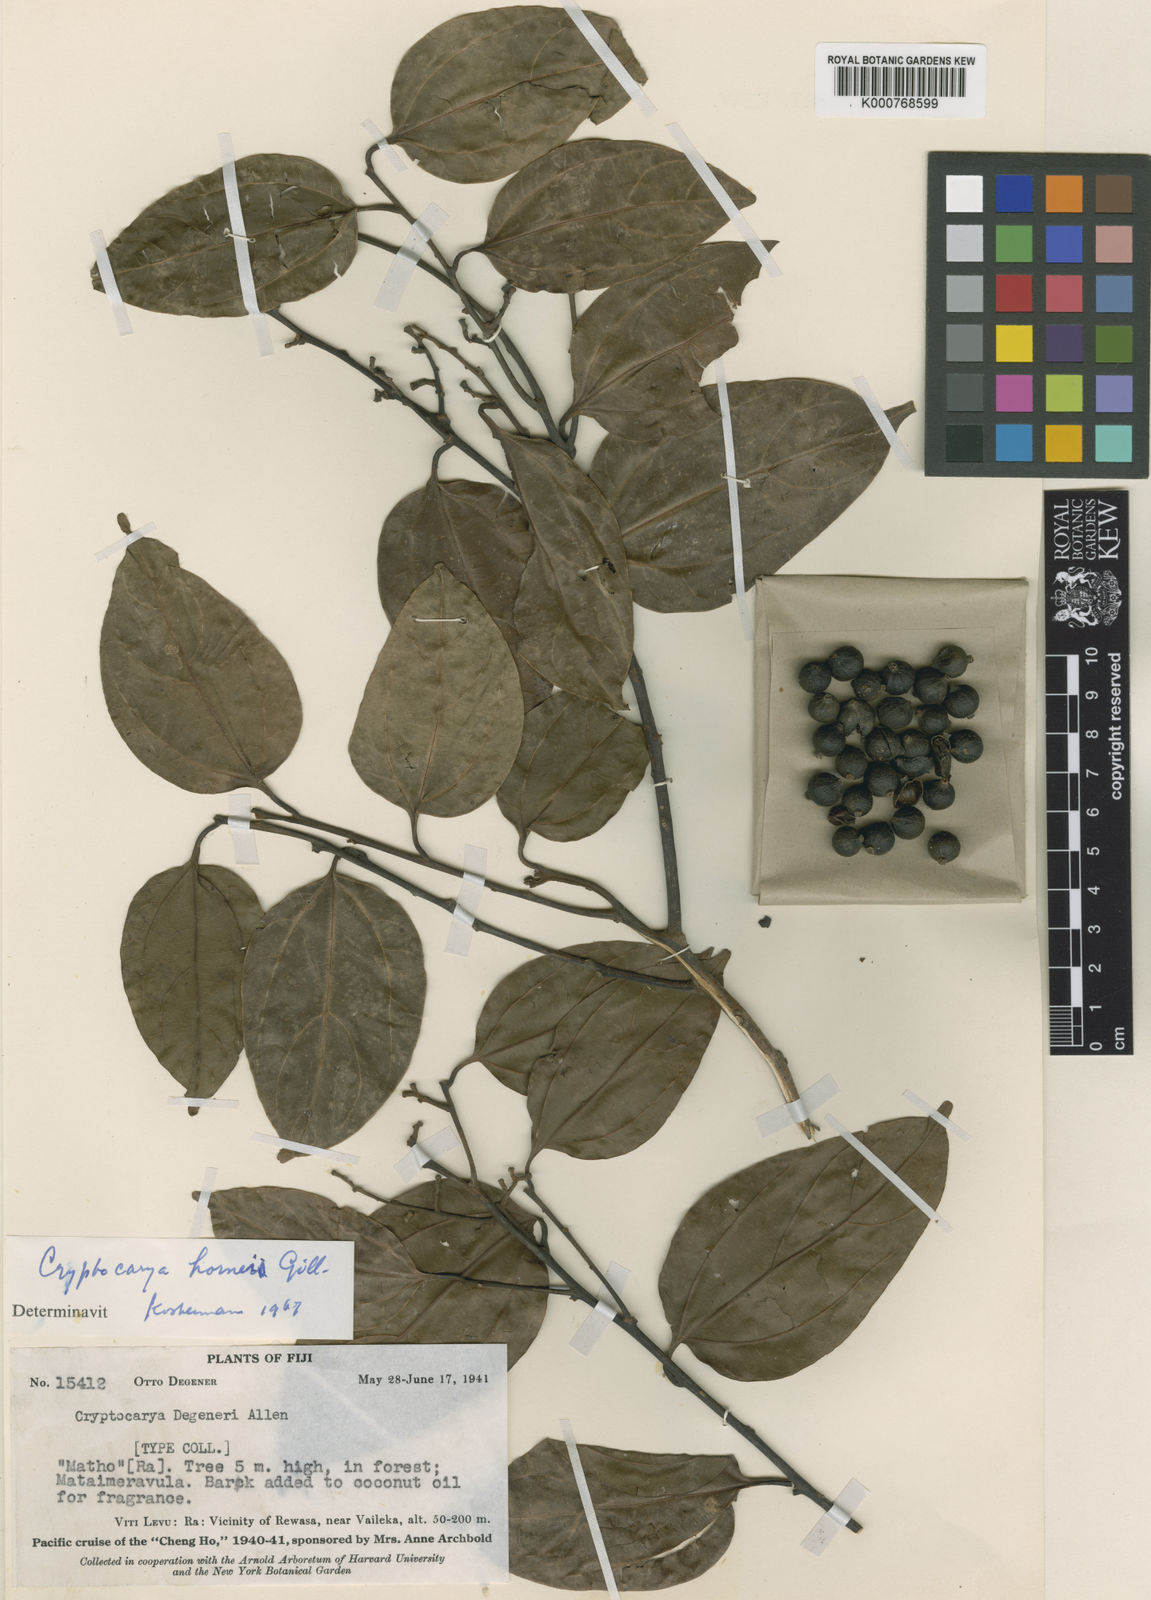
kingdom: Plantae
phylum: Tracheophyta
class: Magnoliopsida
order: Laurales
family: Lauraceae
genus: Cryptocarya
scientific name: Cryptocarya hornei
